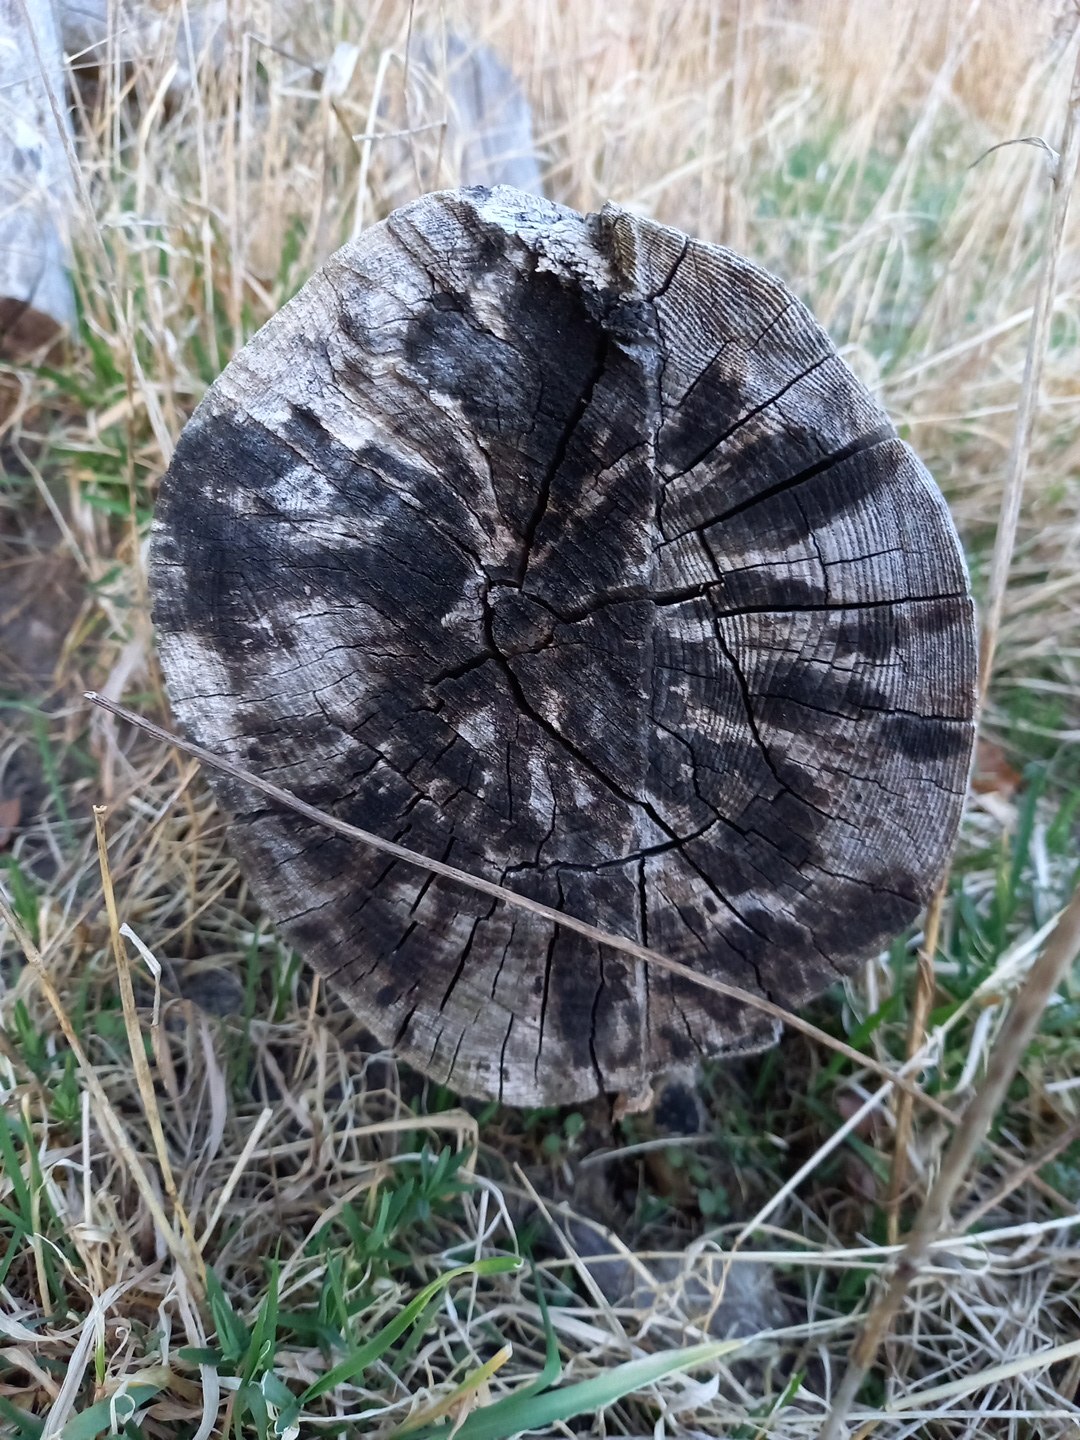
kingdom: Fungi
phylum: Ascomycota
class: Leotiomycetes
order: Helotiales
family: Helotiaceae
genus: Bispora
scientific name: Bispora pallescens
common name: måtte-snitskive
